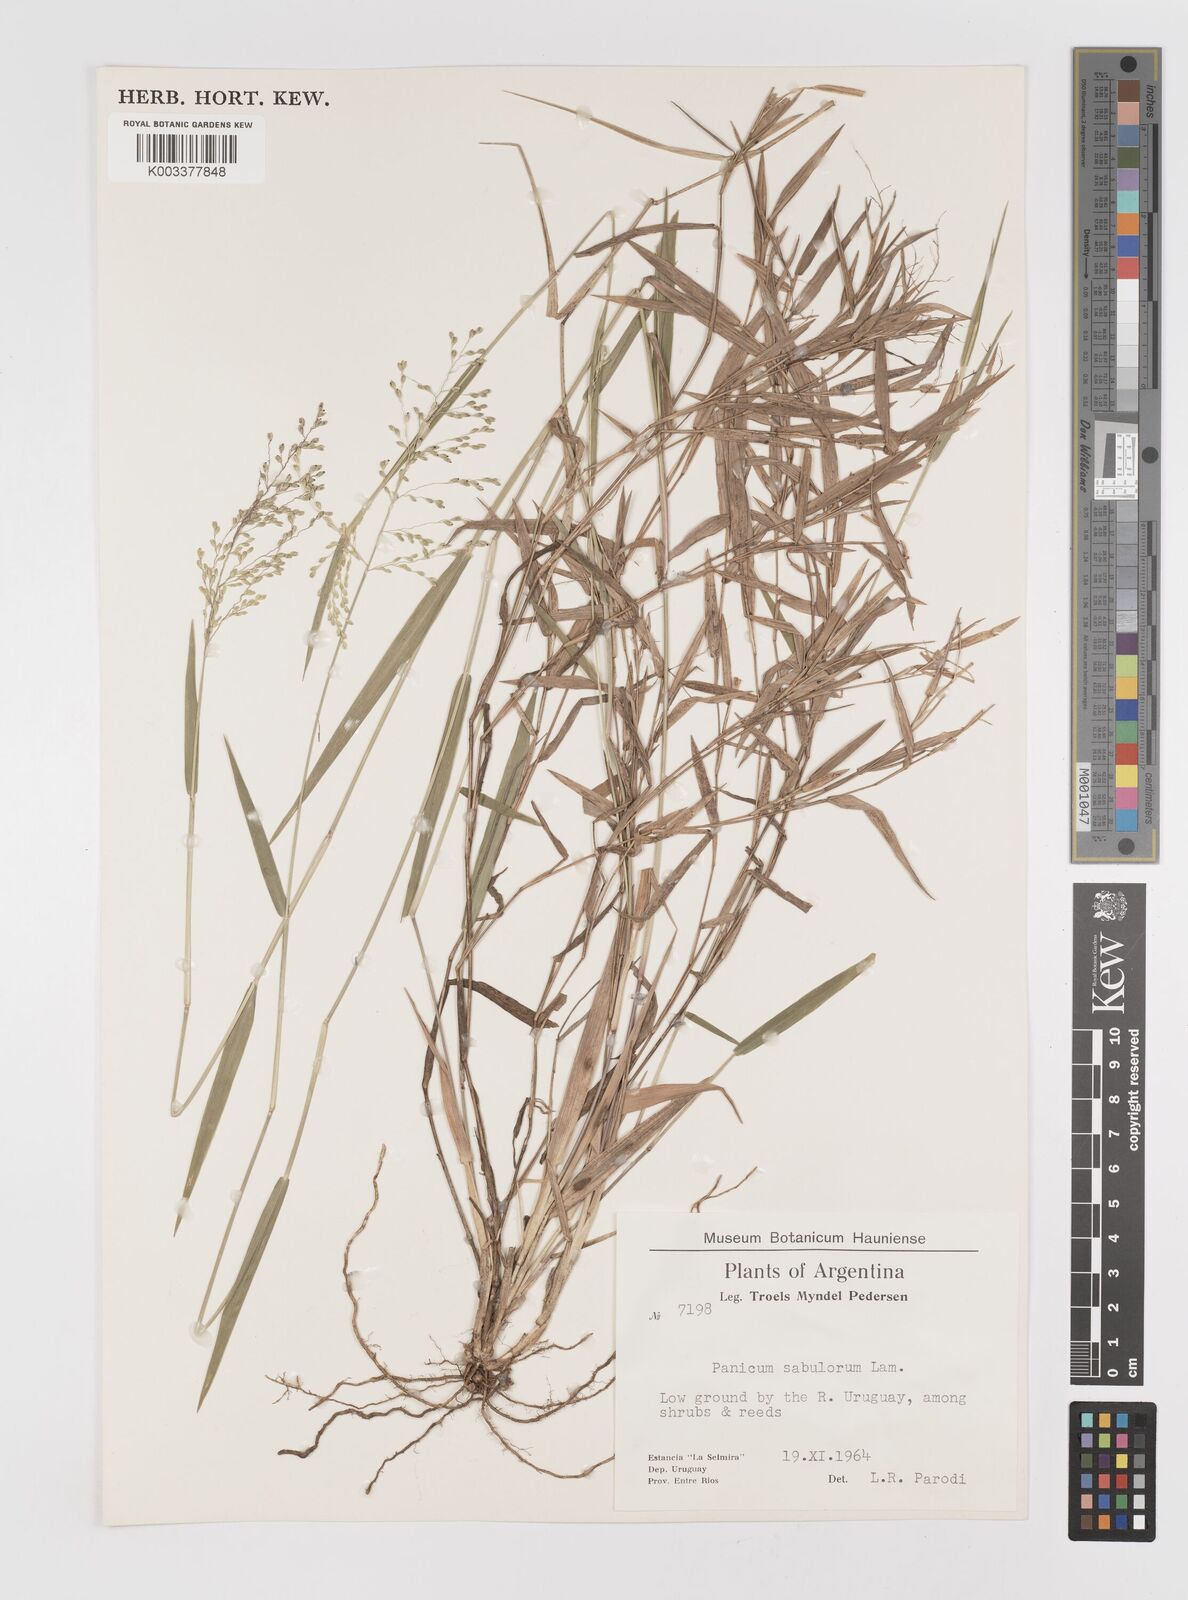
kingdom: Plantae
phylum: Tracheophyta
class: Liliopsida
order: Poales
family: Poaceae
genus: Dichanthelium
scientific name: Dichanthelium stigmosum
